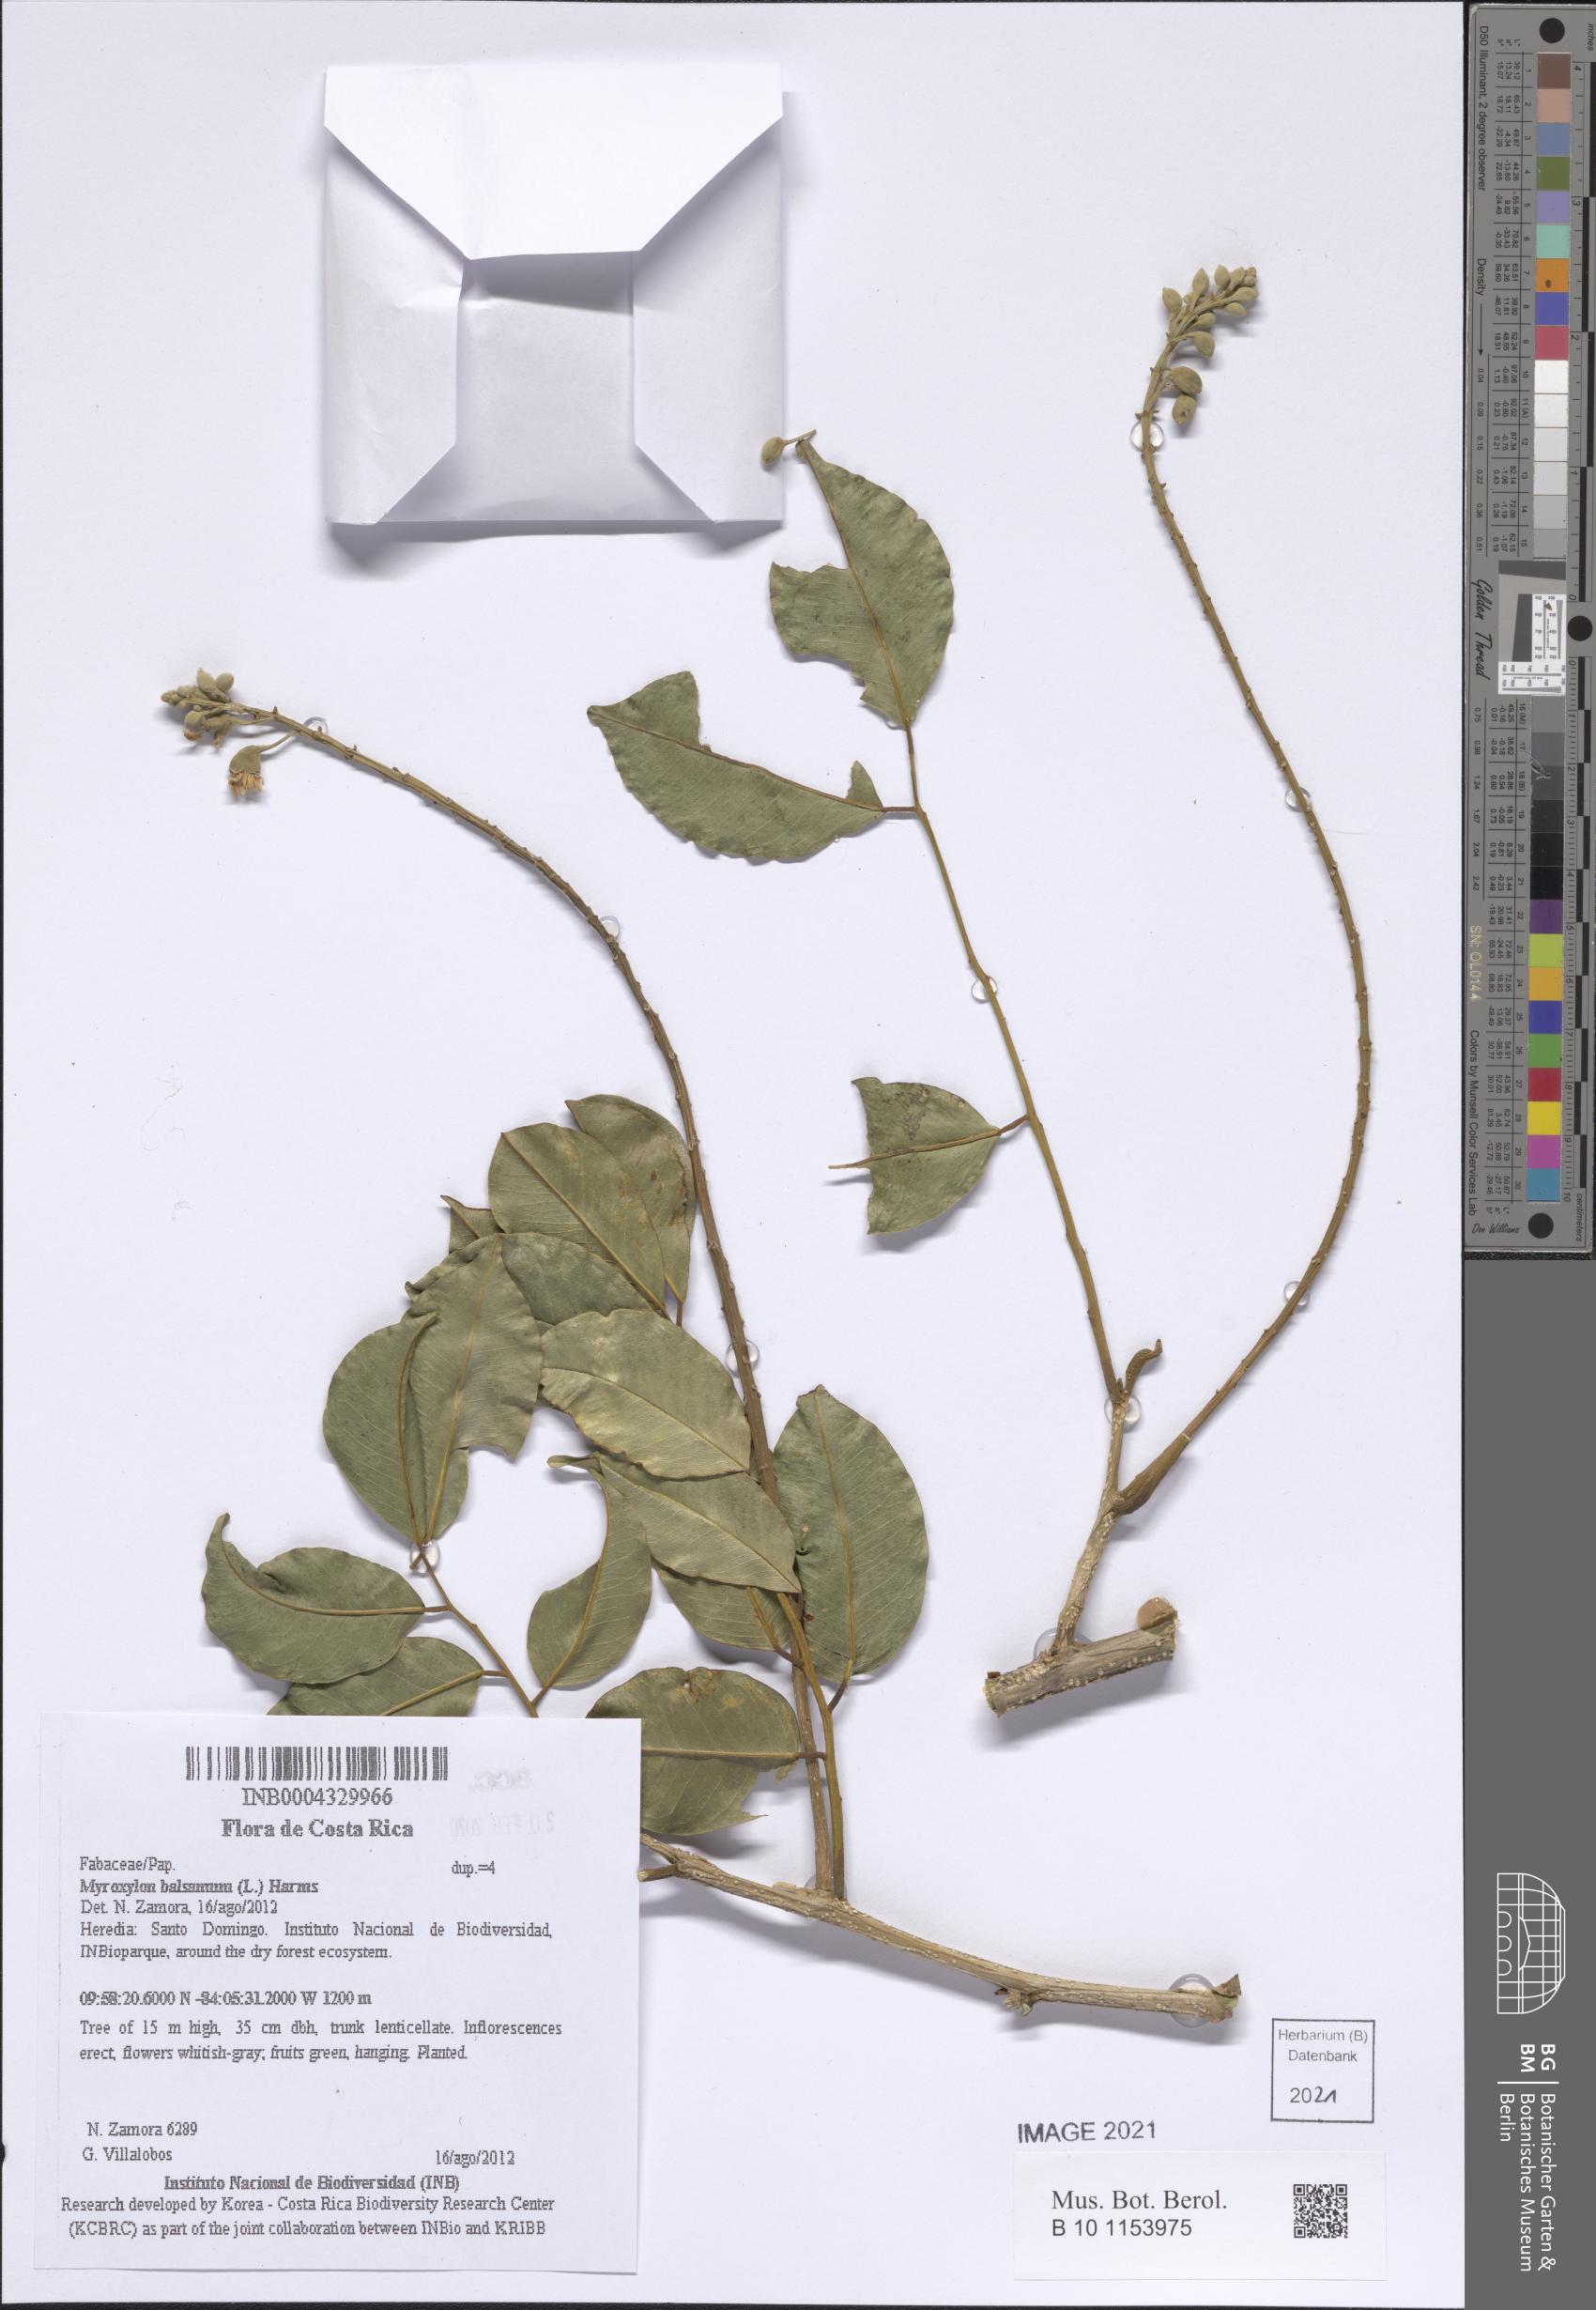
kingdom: Plantae
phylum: Tracheophyta
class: Magnoliopsida
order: Fabales
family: Fabaceae
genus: Myroxylon
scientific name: Myroxylon balsamum
